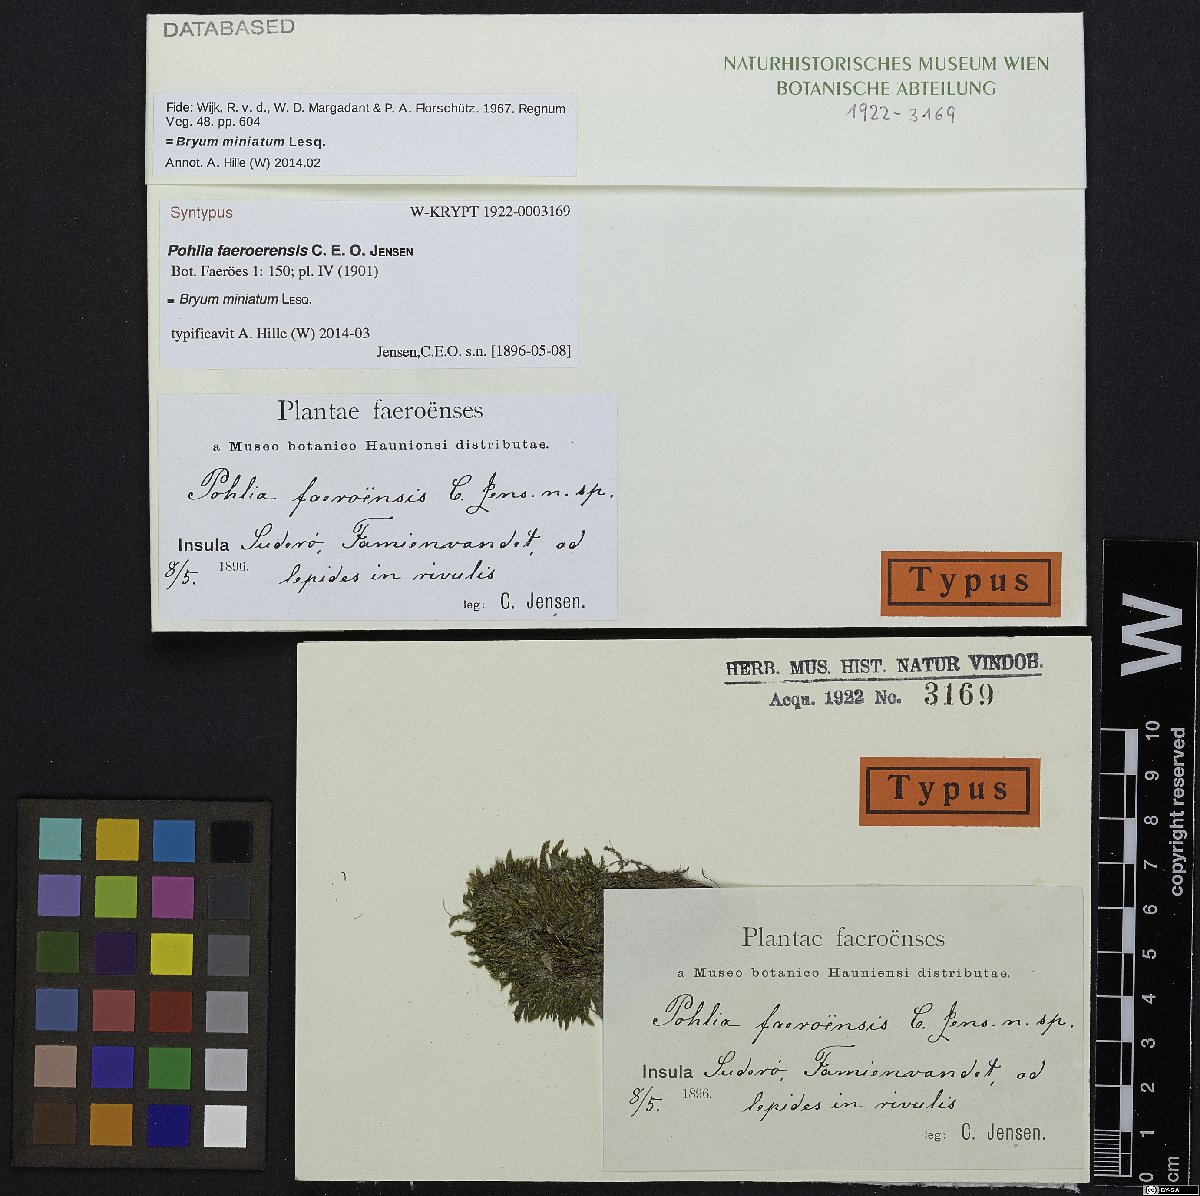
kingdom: Plantae
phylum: Bryophyta
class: Bryopsida
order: Bryales
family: Bryaceae
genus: Imbribryum
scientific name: Imbribryum miniatum
